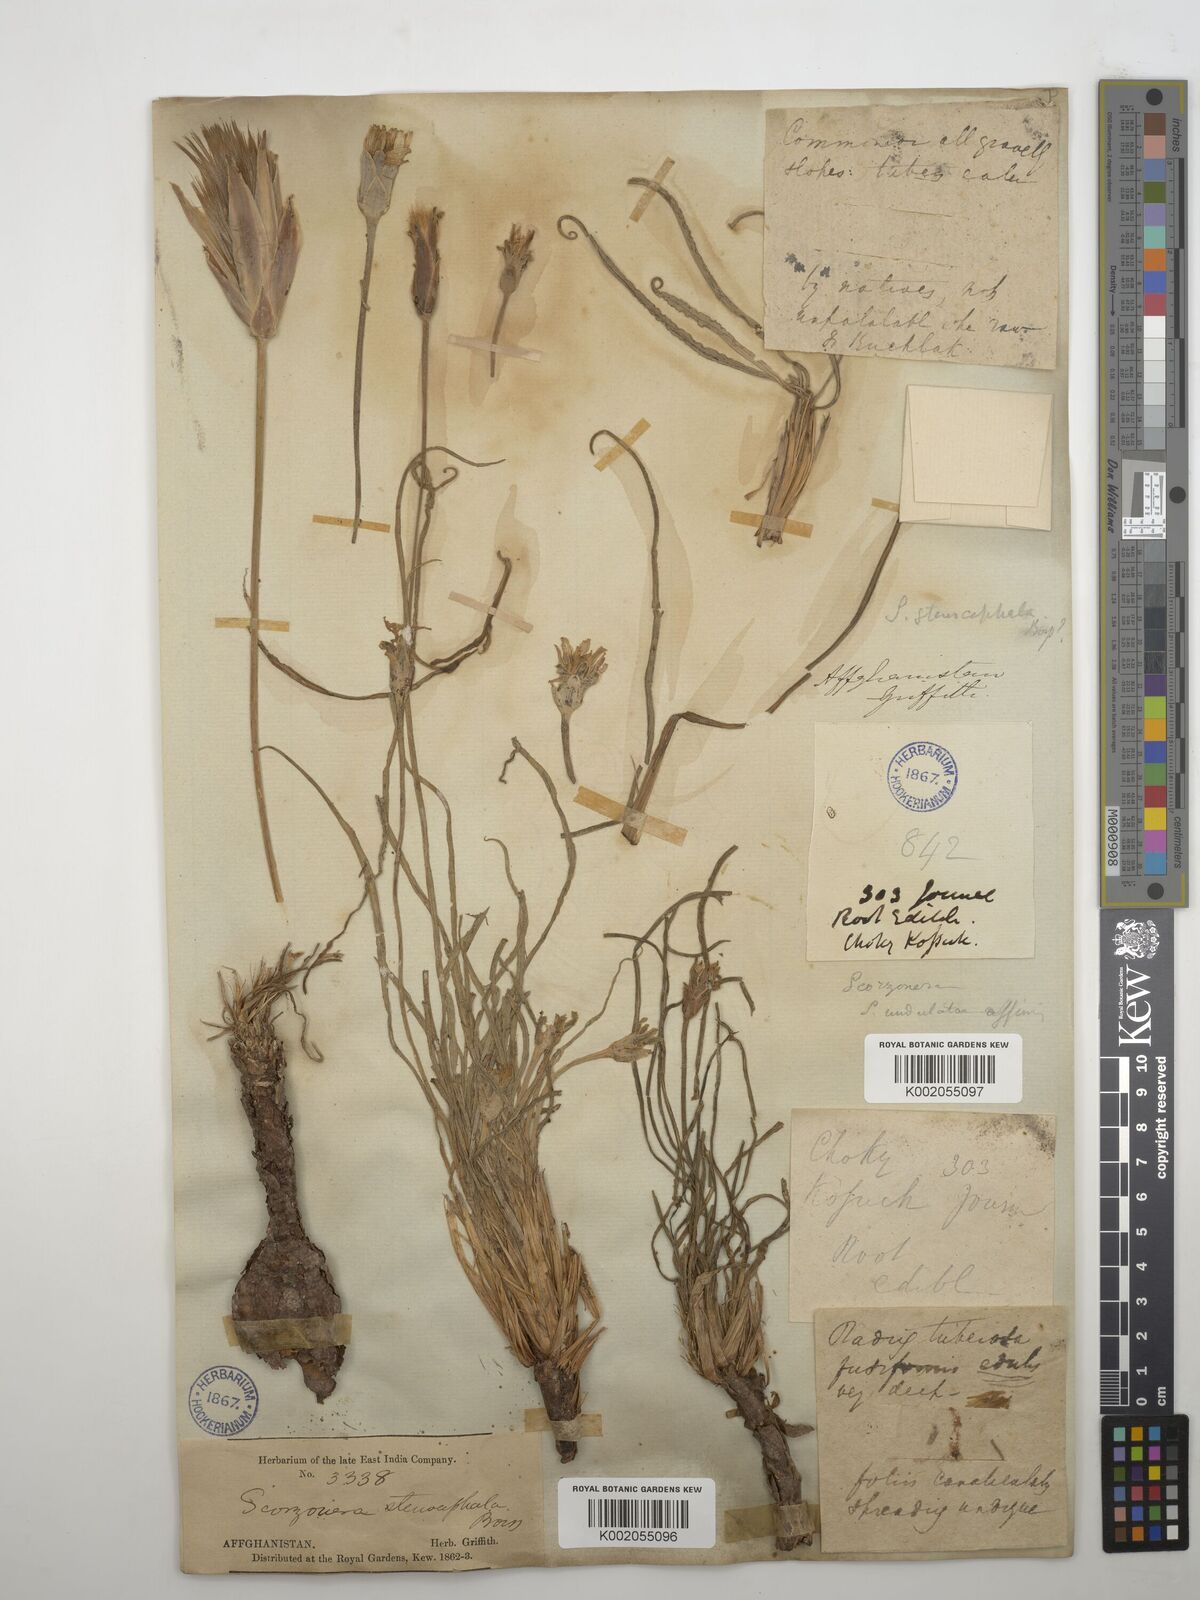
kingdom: Plantae
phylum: Tracheophyta
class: Magnoliopsida
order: Asterales
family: Asteraceae
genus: Candollea
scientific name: Candollea szowitzii
